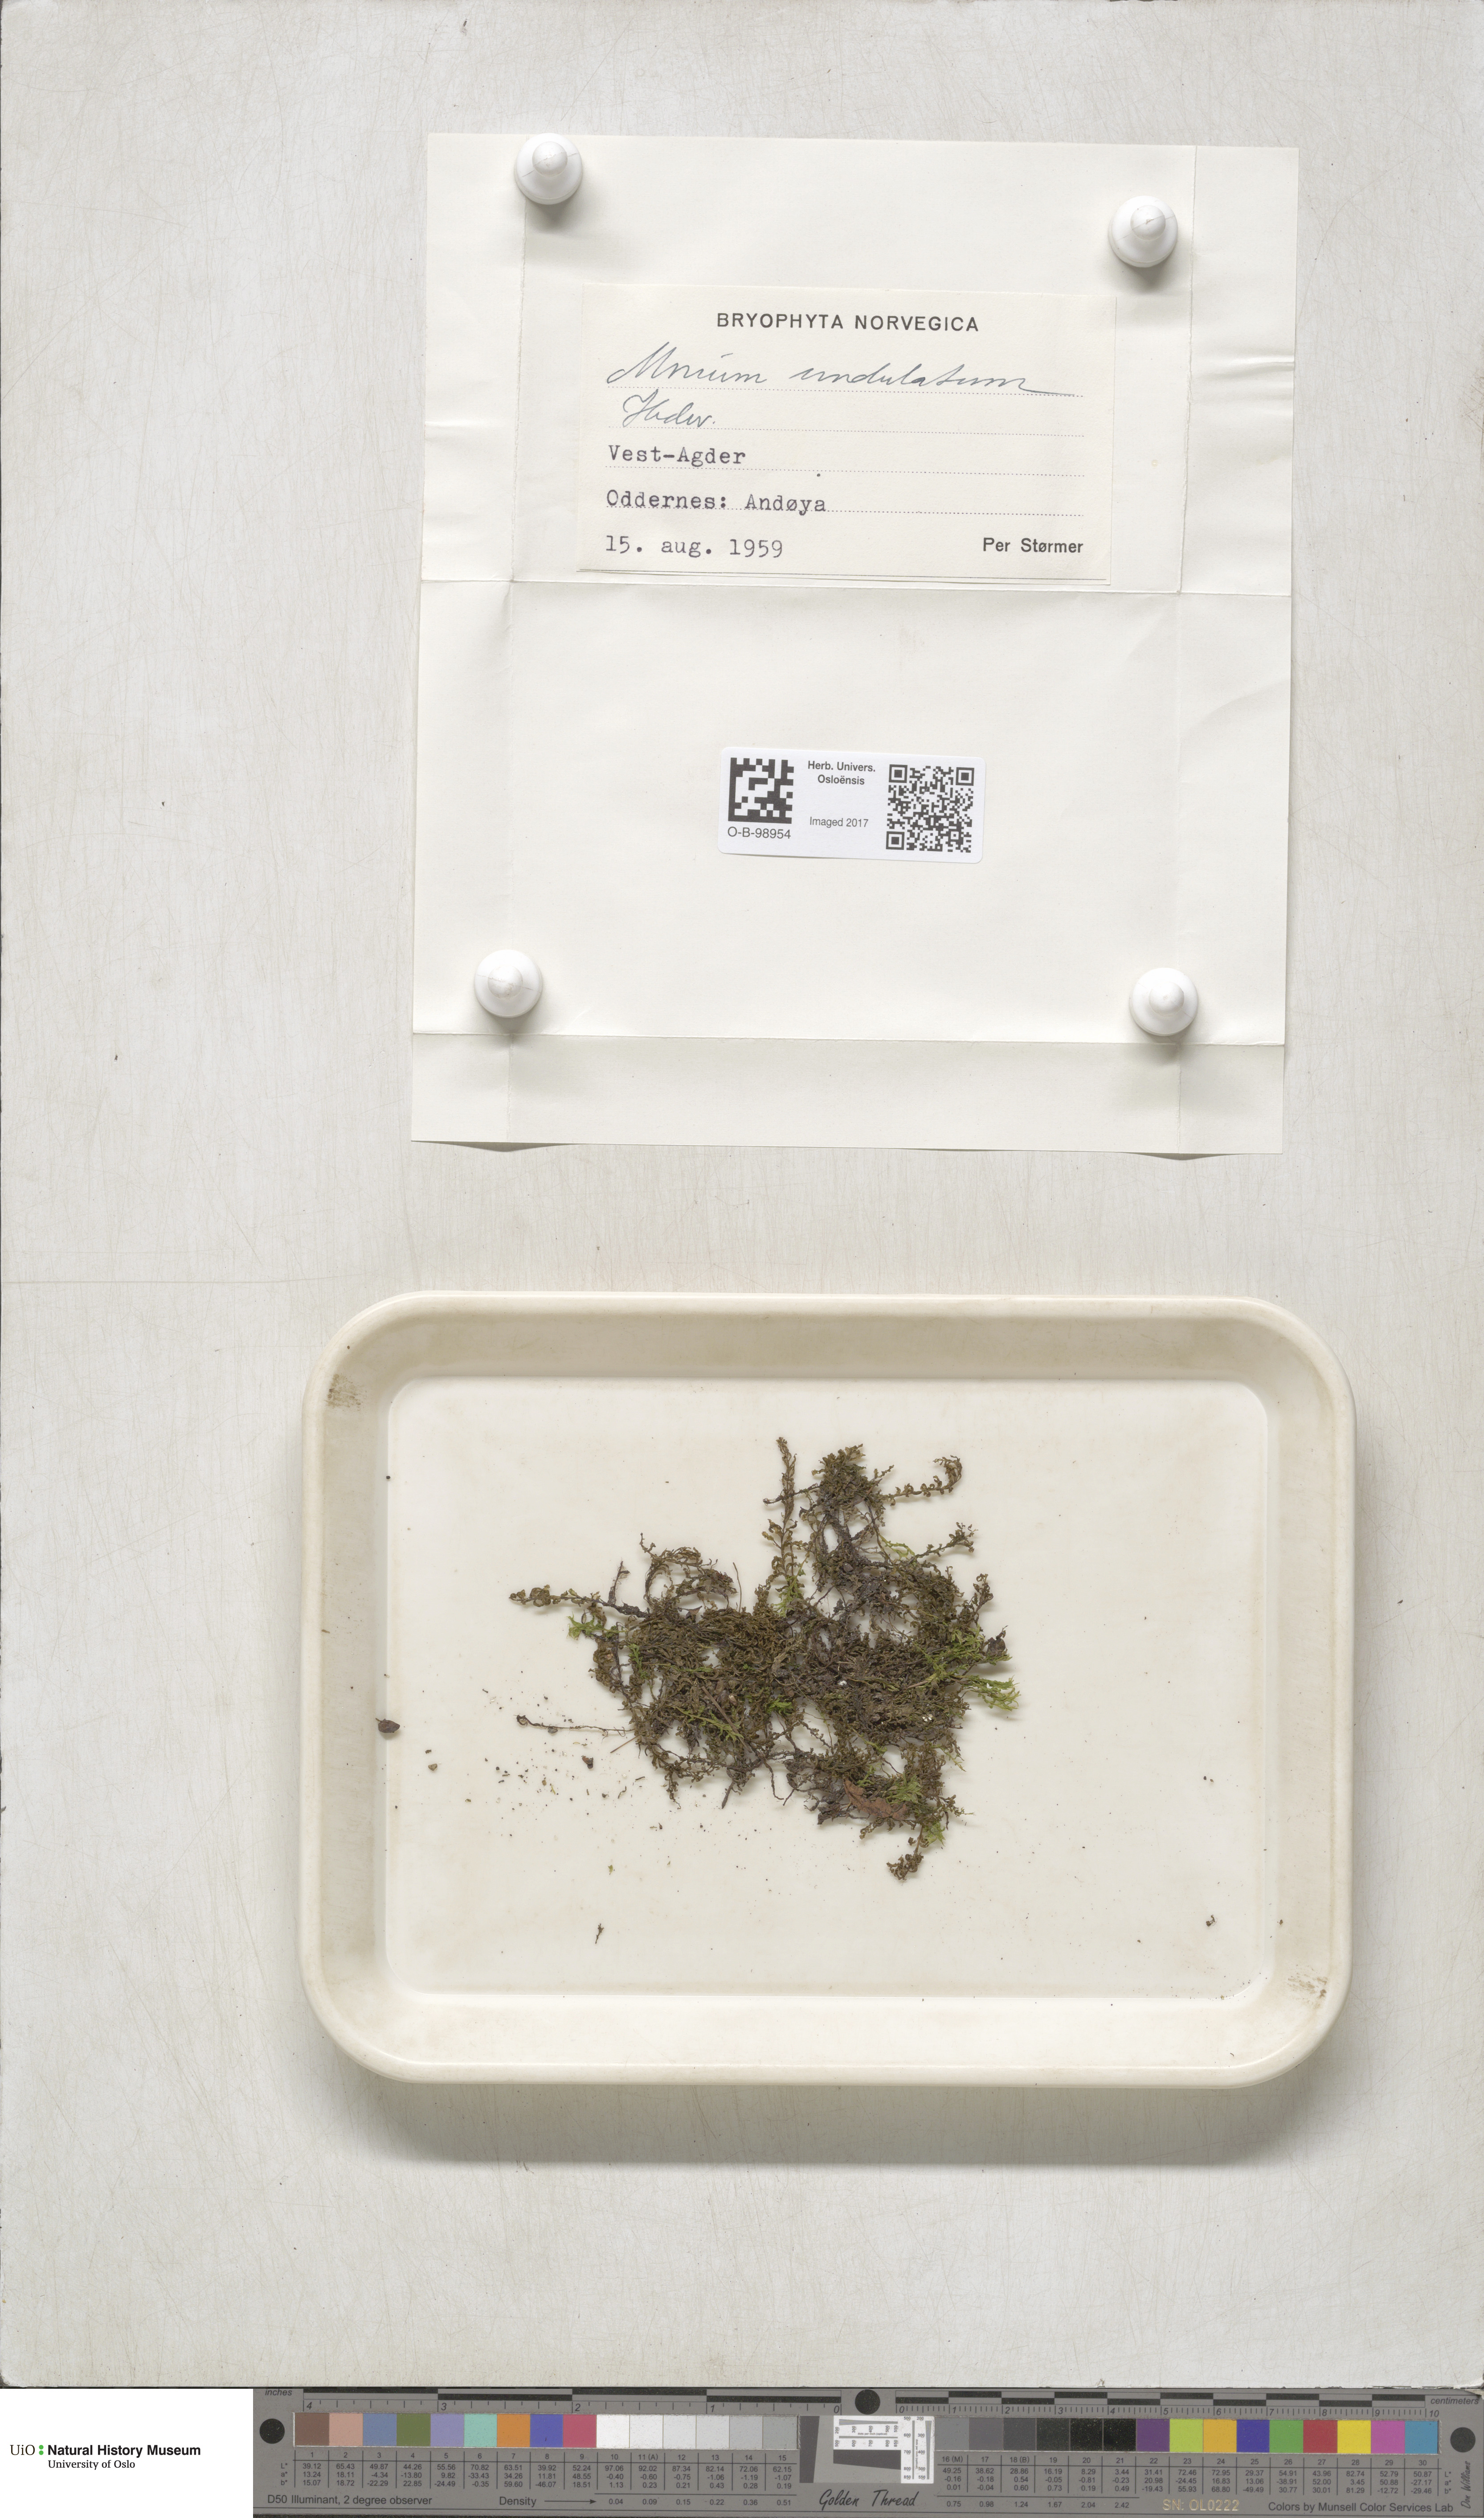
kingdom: Plantae
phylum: Bryophyta
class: Bryopsida
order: Bryales
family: Mniaceae
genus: Plagiomnium
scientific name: Plagiomnium undulatum
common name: Hart's-tongue thyme-moss
